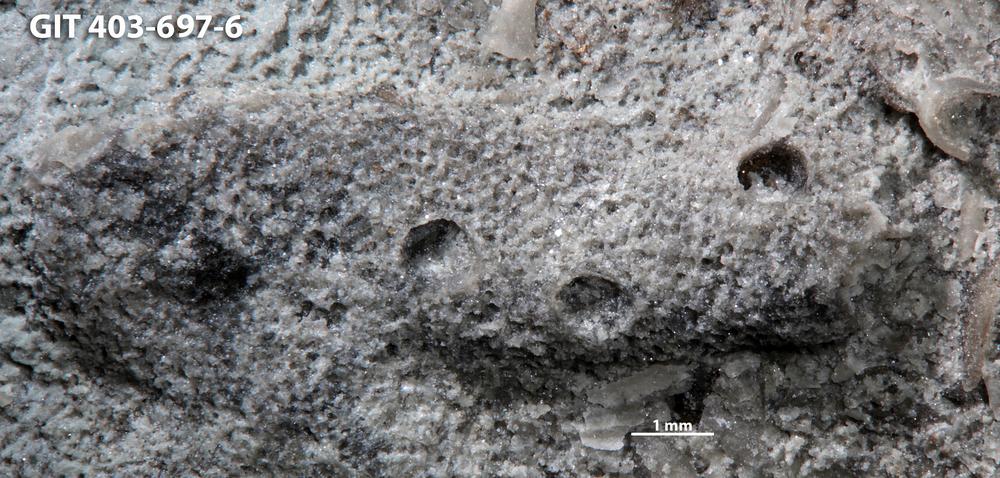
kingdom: Animalia
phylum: Cnidaria
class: Hydrozoa
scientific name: Hydrozoa
